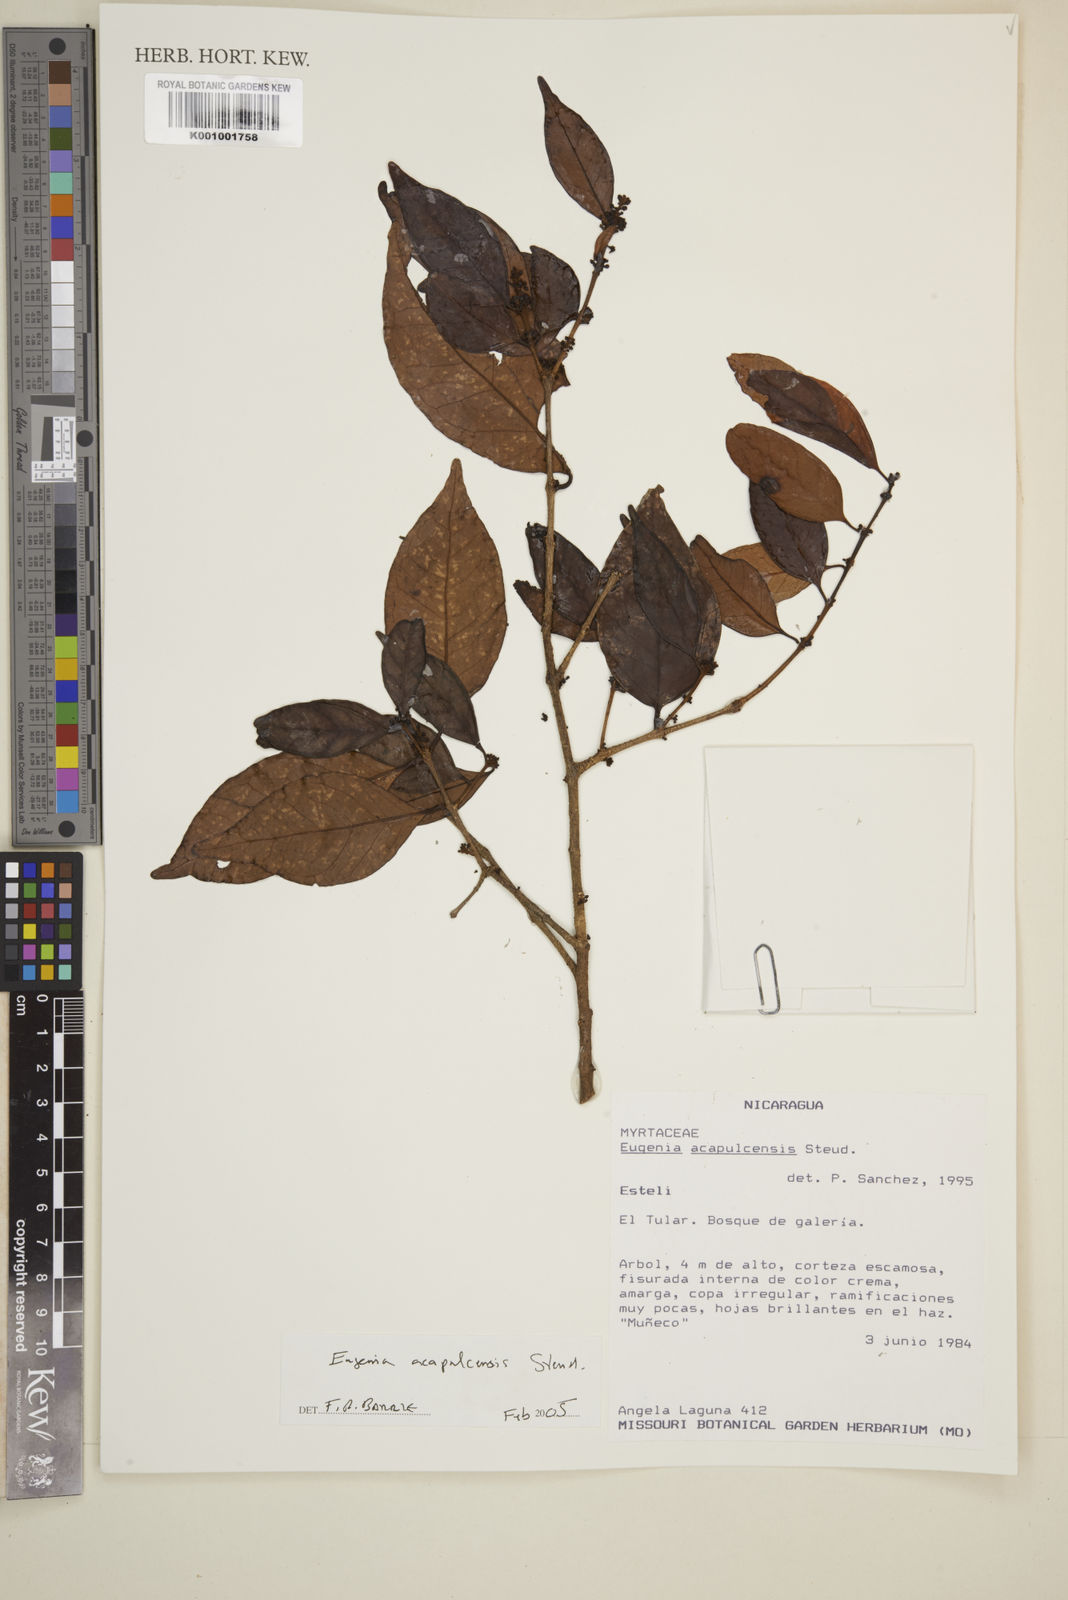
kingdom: Plantae
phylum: Tracheophyta
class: Magnoliopsida
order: Myrtales
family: Myrtaceae
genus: Eugenia
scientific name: Eugenia acapulcensis
